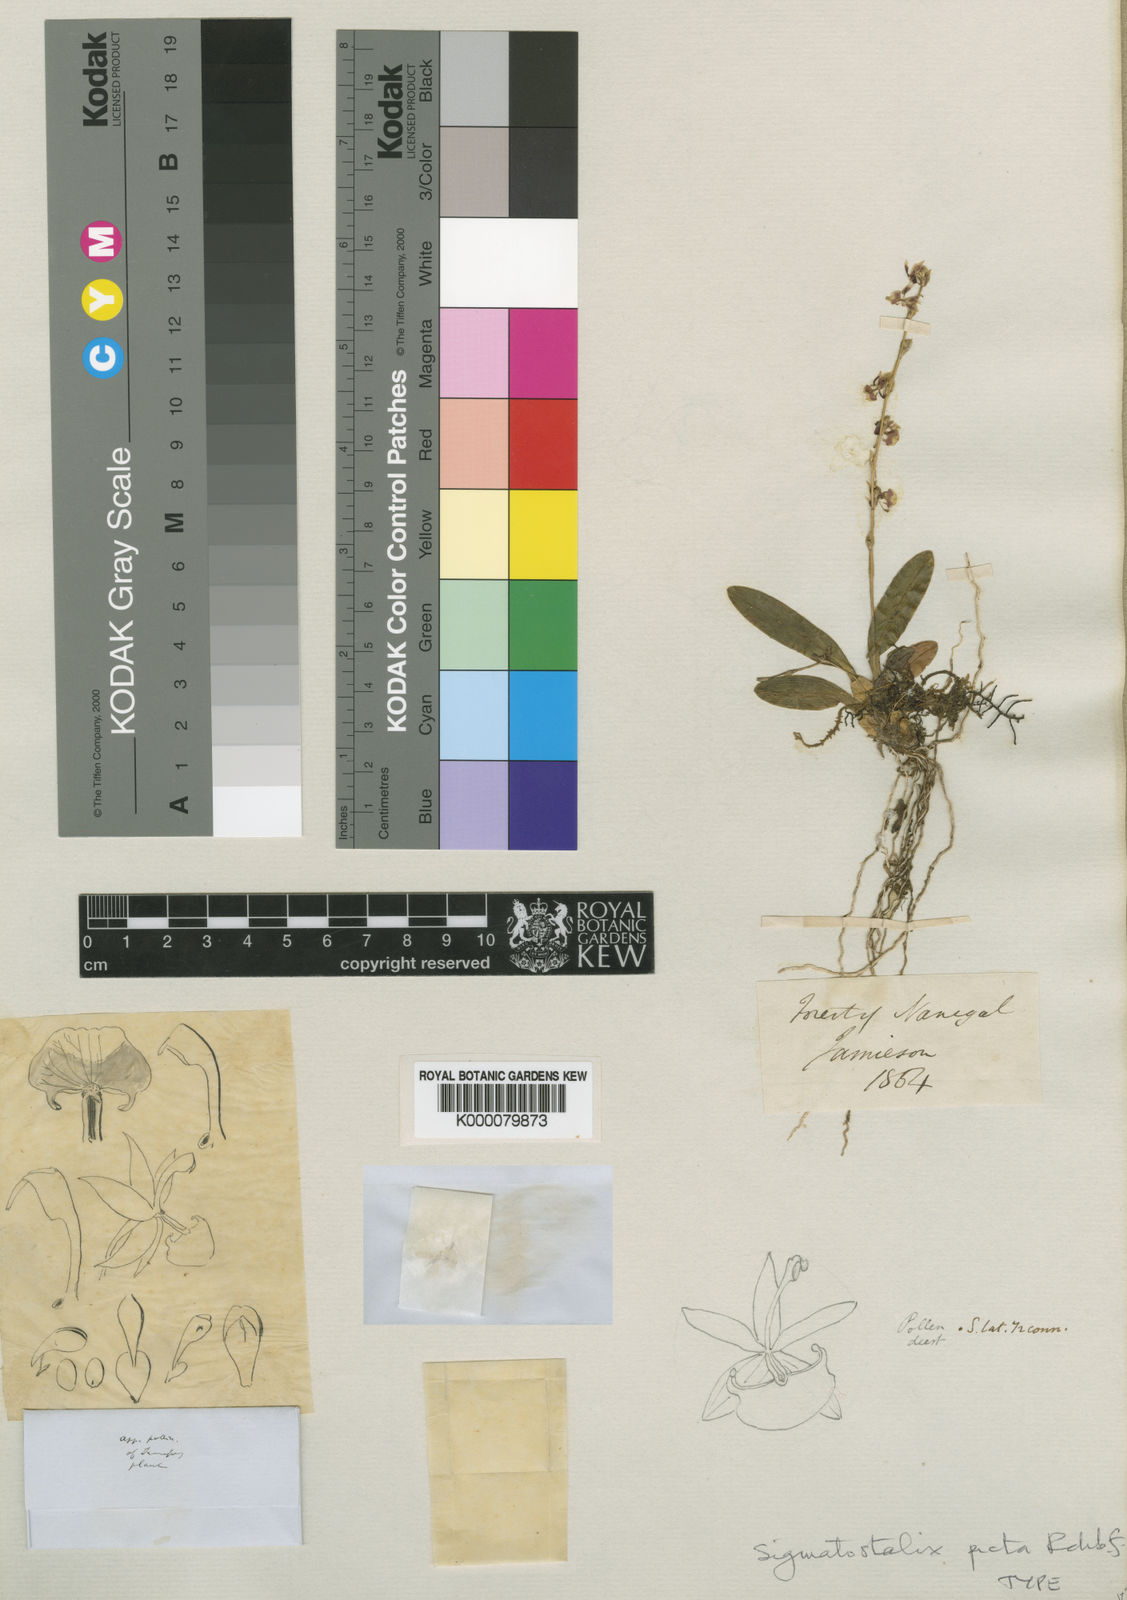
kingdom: Plantae
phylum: Tracheophyta
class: Liliopsida
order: Asparagales
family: Orchidaceae
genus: Oncidium
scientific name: Oncidium poikilostalix
